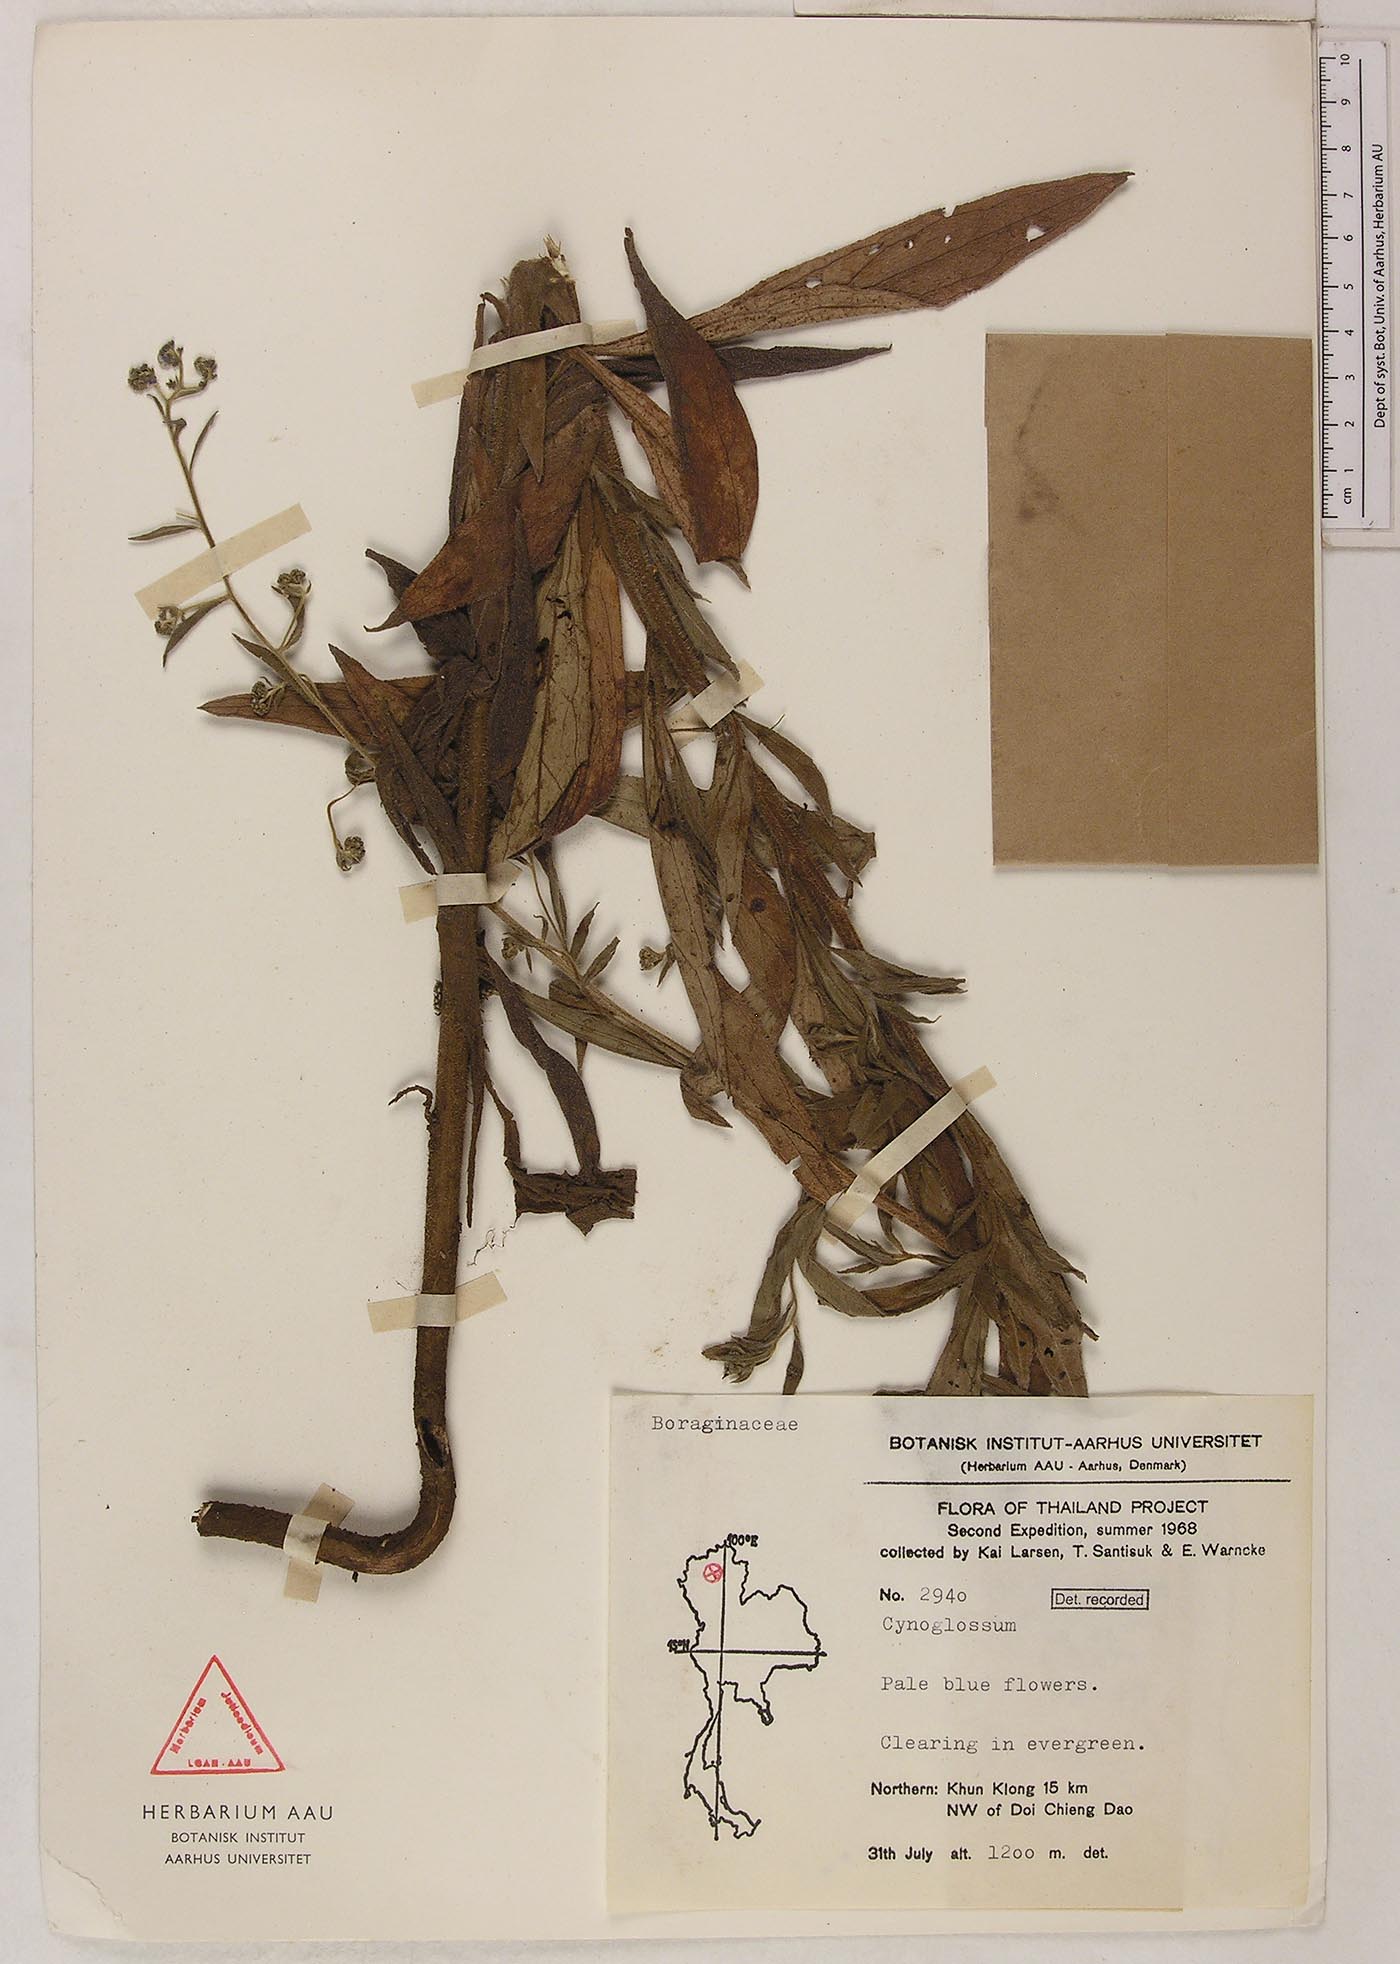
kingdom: Plantae
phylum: Tracheophyta
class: Magnoliopsida
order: Boraginales
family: Boraginaceae
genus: Rochelia
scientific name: Rochelia zeylanica
